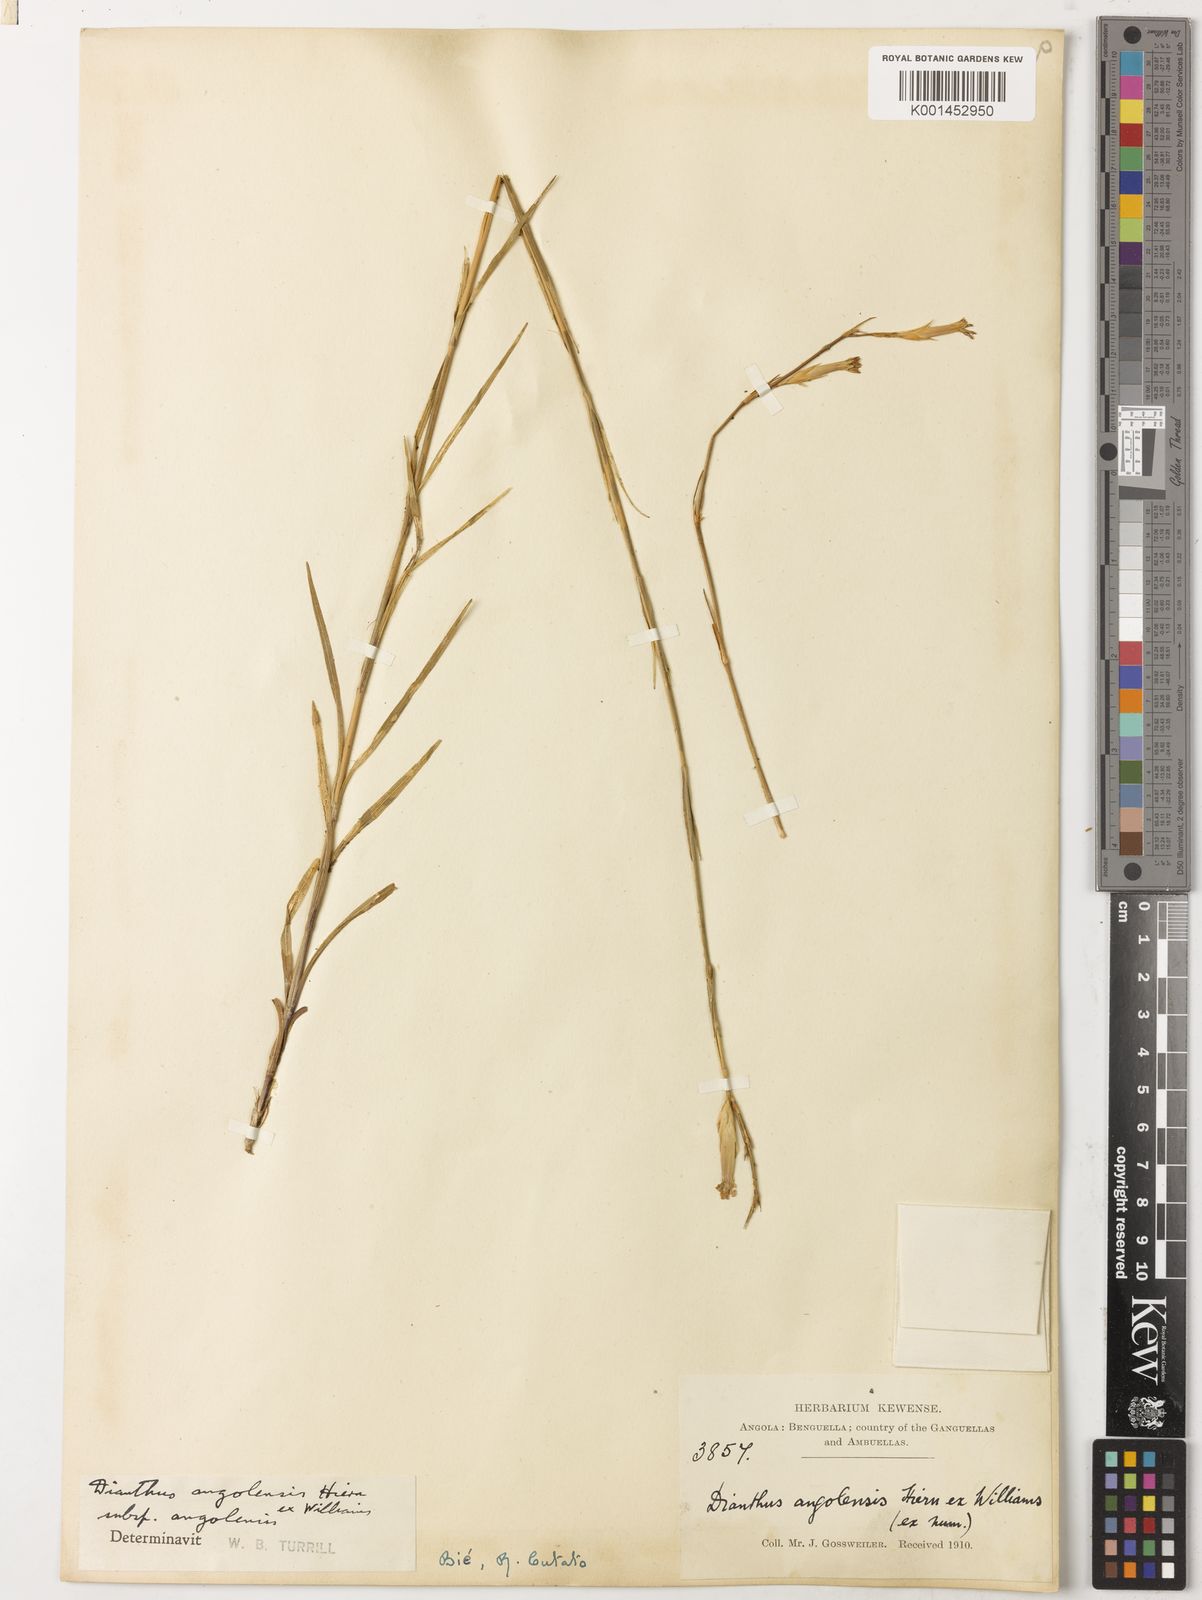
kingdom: Plantae
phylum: Tracheophyta
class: Magnoliopsida
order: Caryophyllales
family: Caryophyllaceae
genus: Dianthus
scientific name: Dianthus angolensis
